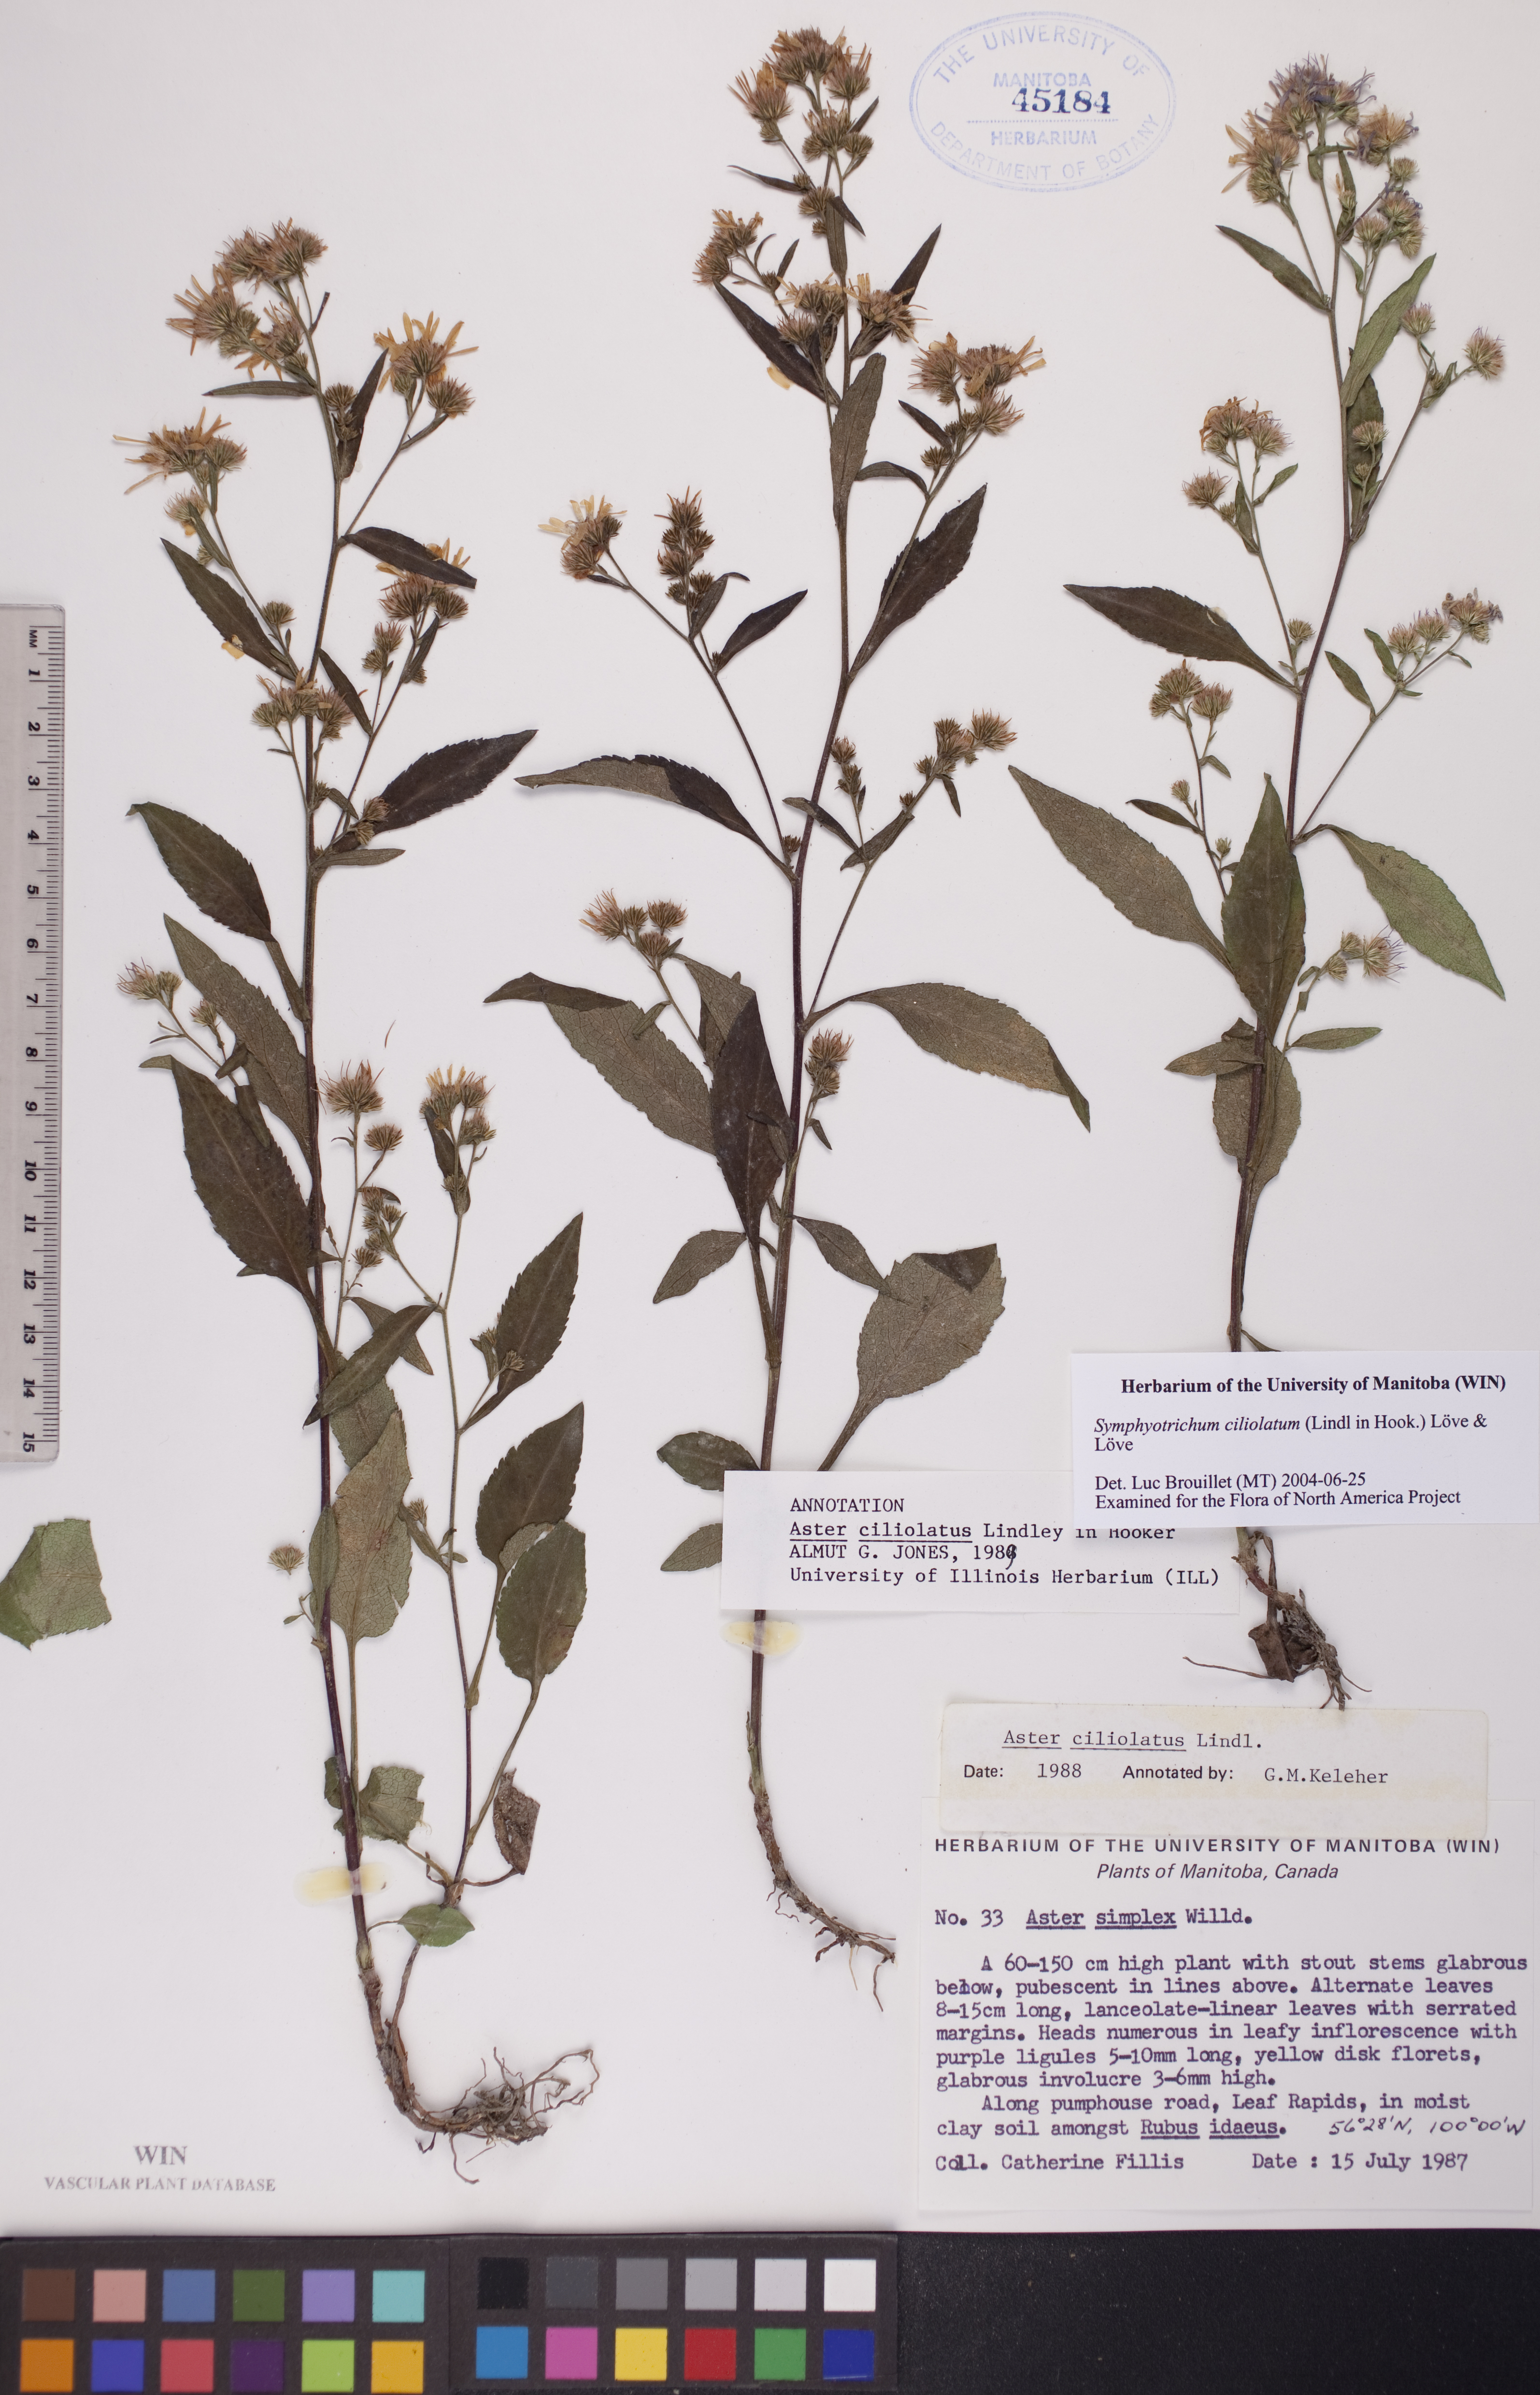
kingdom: Plantae
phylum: Tracheophyta
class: Magnoliopsida
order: Asterales
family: Asteraceae
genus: Symphyotrichum
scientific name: Symphyotrichum ciliolatum
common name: Fringed blue aster
